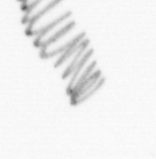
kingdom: Chromista
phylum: Ochrophyta
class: Bacillariophyceae
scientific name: Bacillariophyceae
